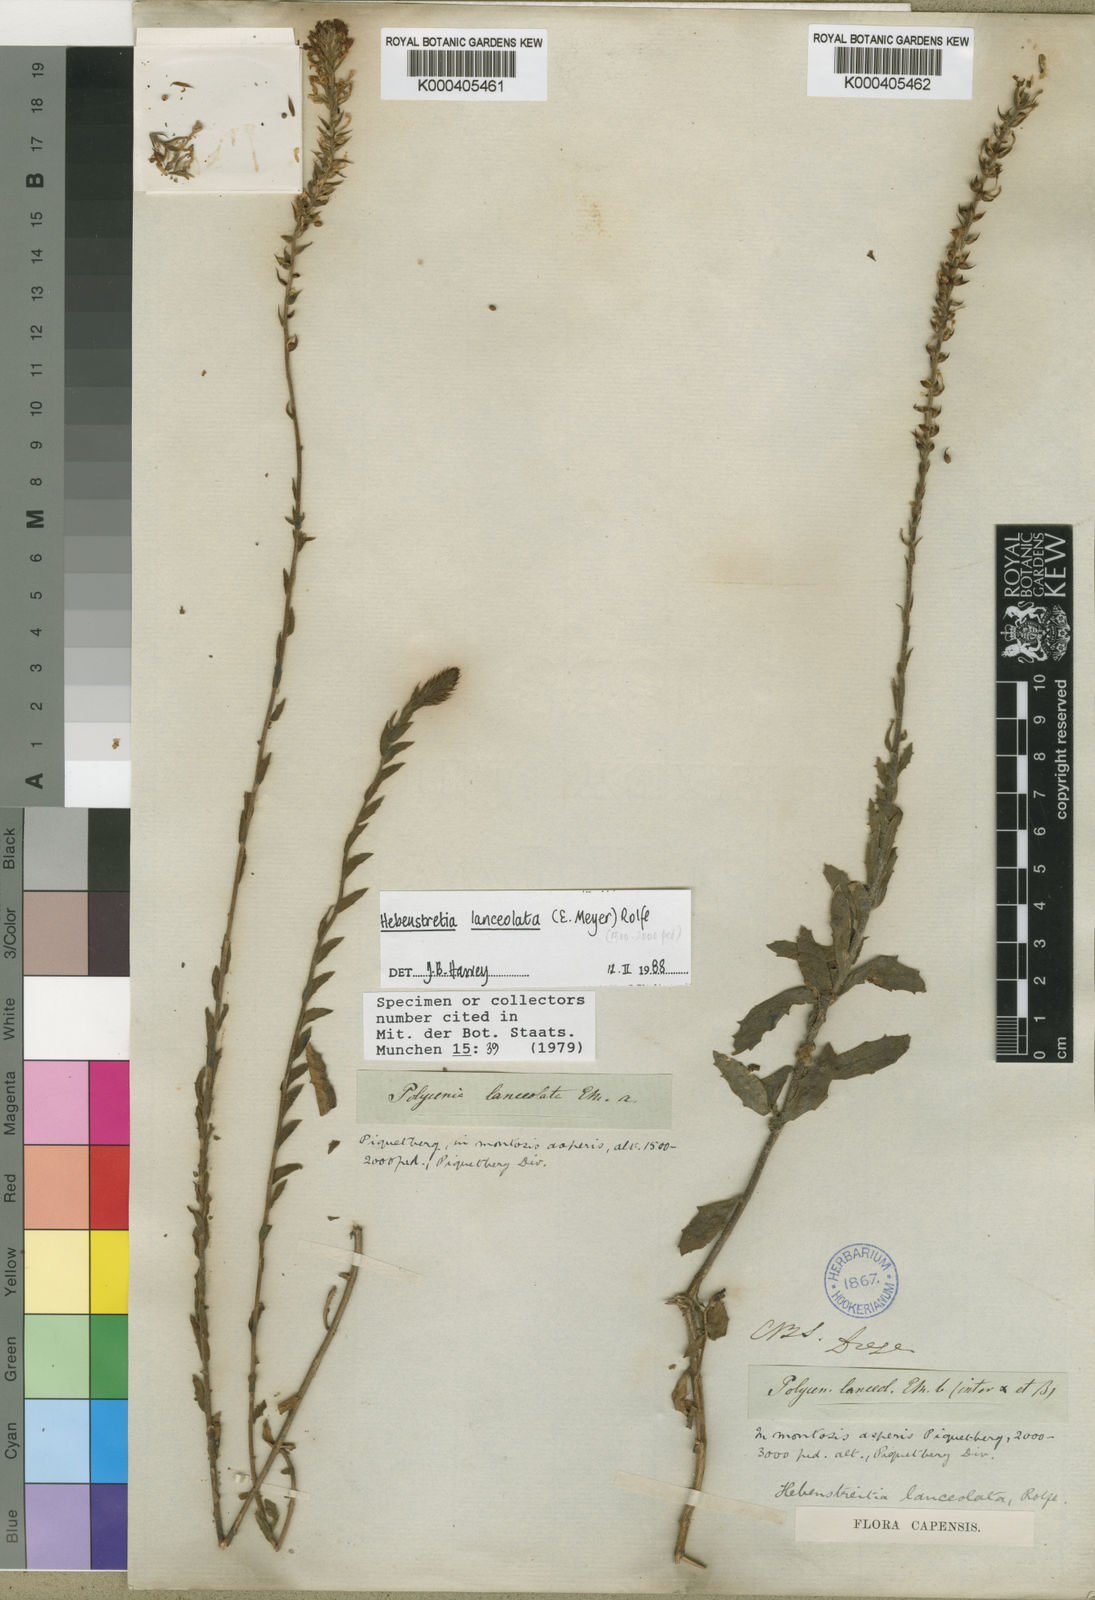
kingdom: Plantae
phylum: Tracheophyta
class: Magnoliopsida
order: Lamiales
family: Scrophulariaceae
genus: Hebenstretia
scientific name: Hebenstretia lanceolata
